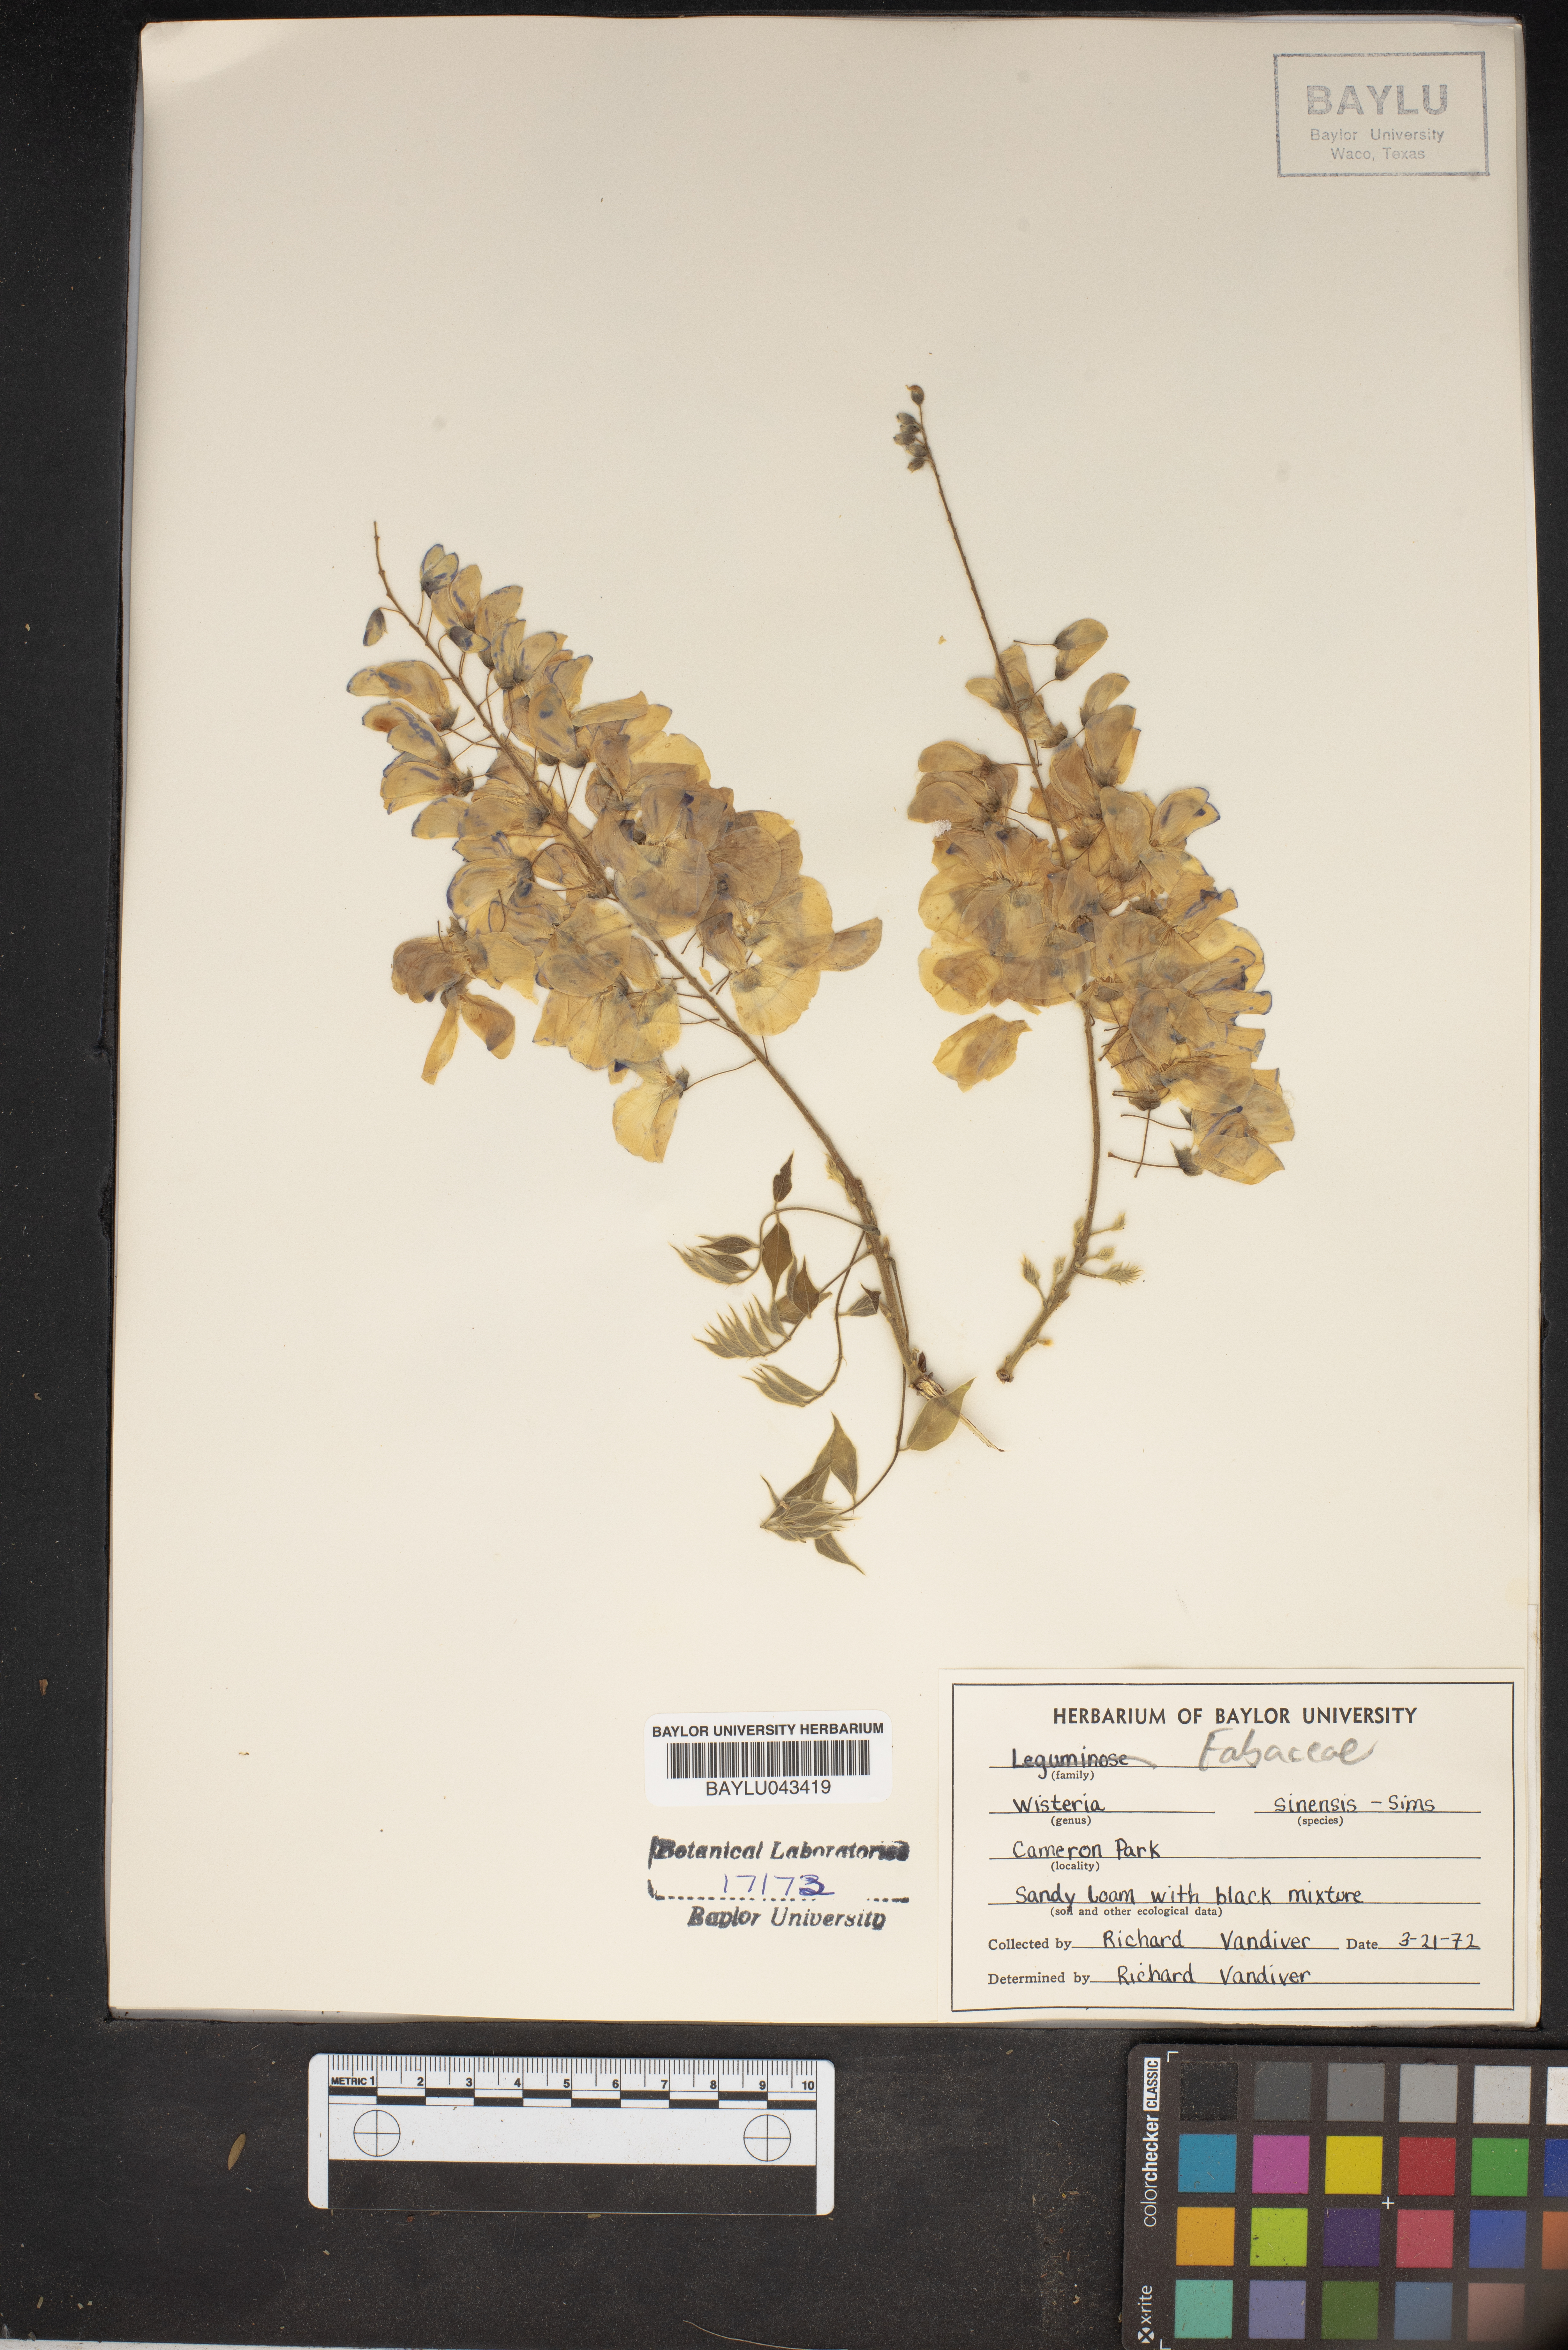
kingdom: Plantae
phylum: Tracheophyta
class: Magnoliopsida
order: Fabales
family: Fabaceae
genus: Wisteria
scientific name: Wisteria sinensis
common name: Chinese wisteria
